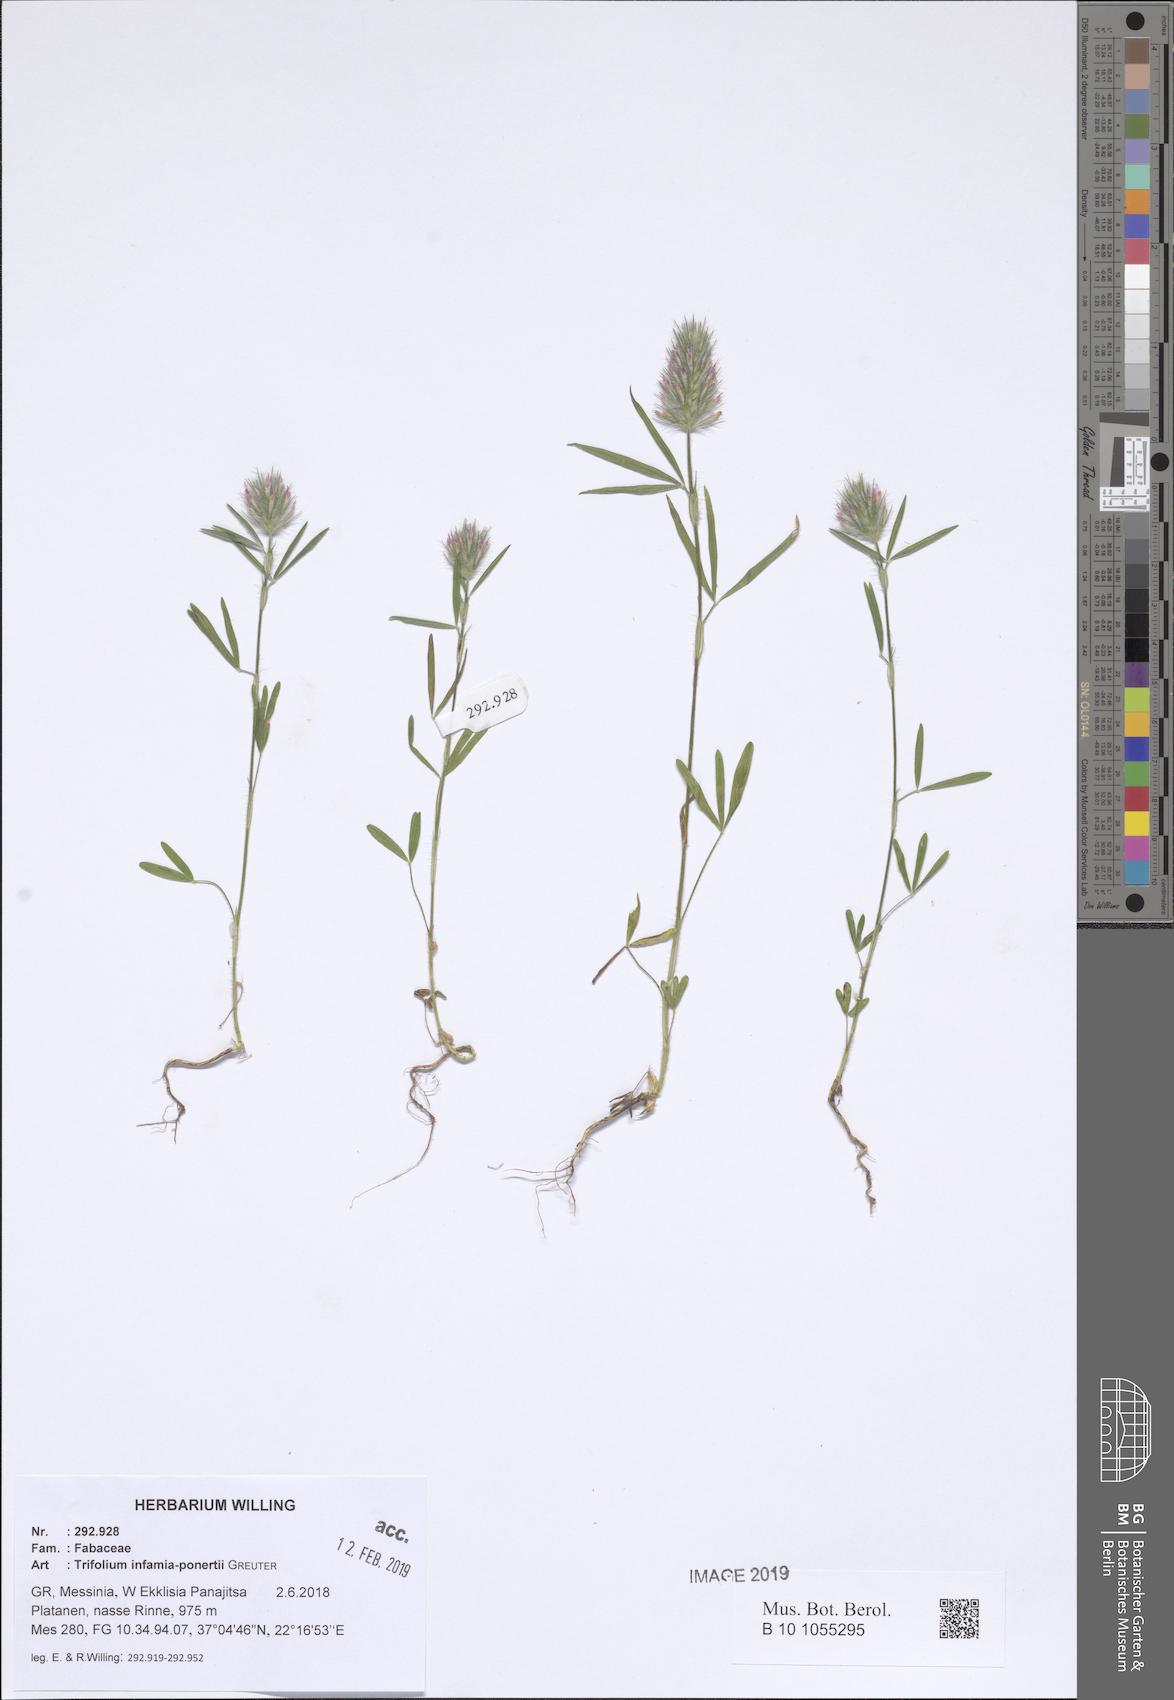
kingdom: Plantae
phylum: Tracheophyta
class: Magnoliopsida
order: Fabales
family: Fabaceae
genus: Trifolium
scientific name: Trifolium infamia-ponertii
